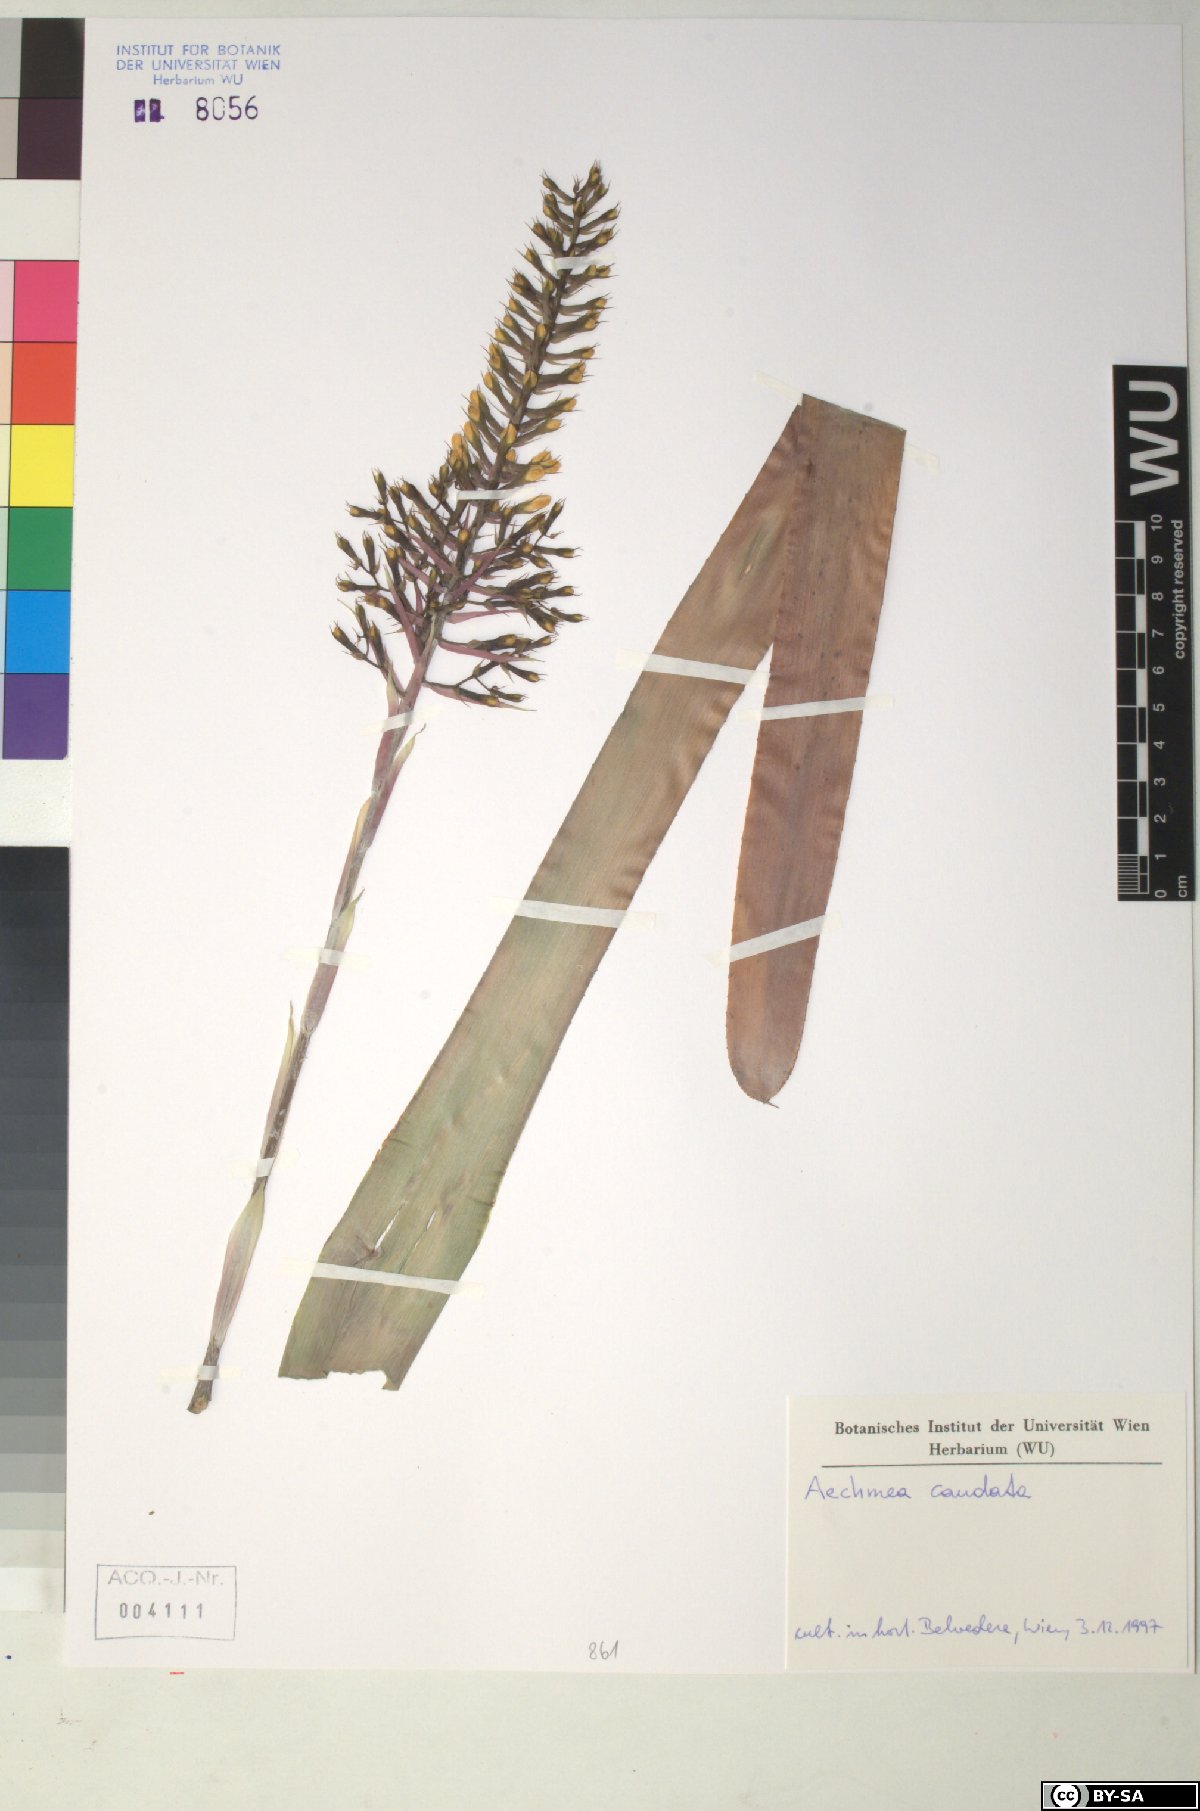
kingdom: Plantae
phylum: Tracheophyta
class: Liliopsida
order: Poales
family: Bromeliaceae
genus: Aechmea
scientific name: Aechmea caudata
